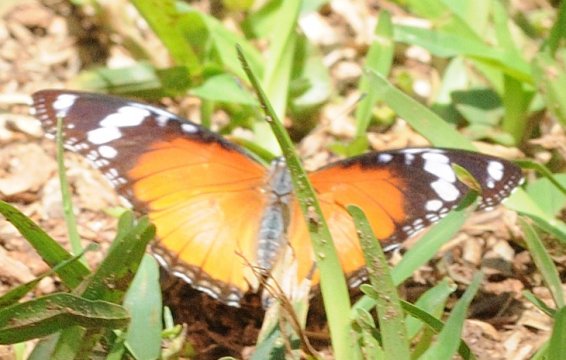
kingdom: Animalia
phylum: Arthropoda
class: Insecta
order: Lepidoptera
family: Nymphalidae
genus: Hypolimnas
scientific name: Hypolimnas misippus
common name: Mimic
